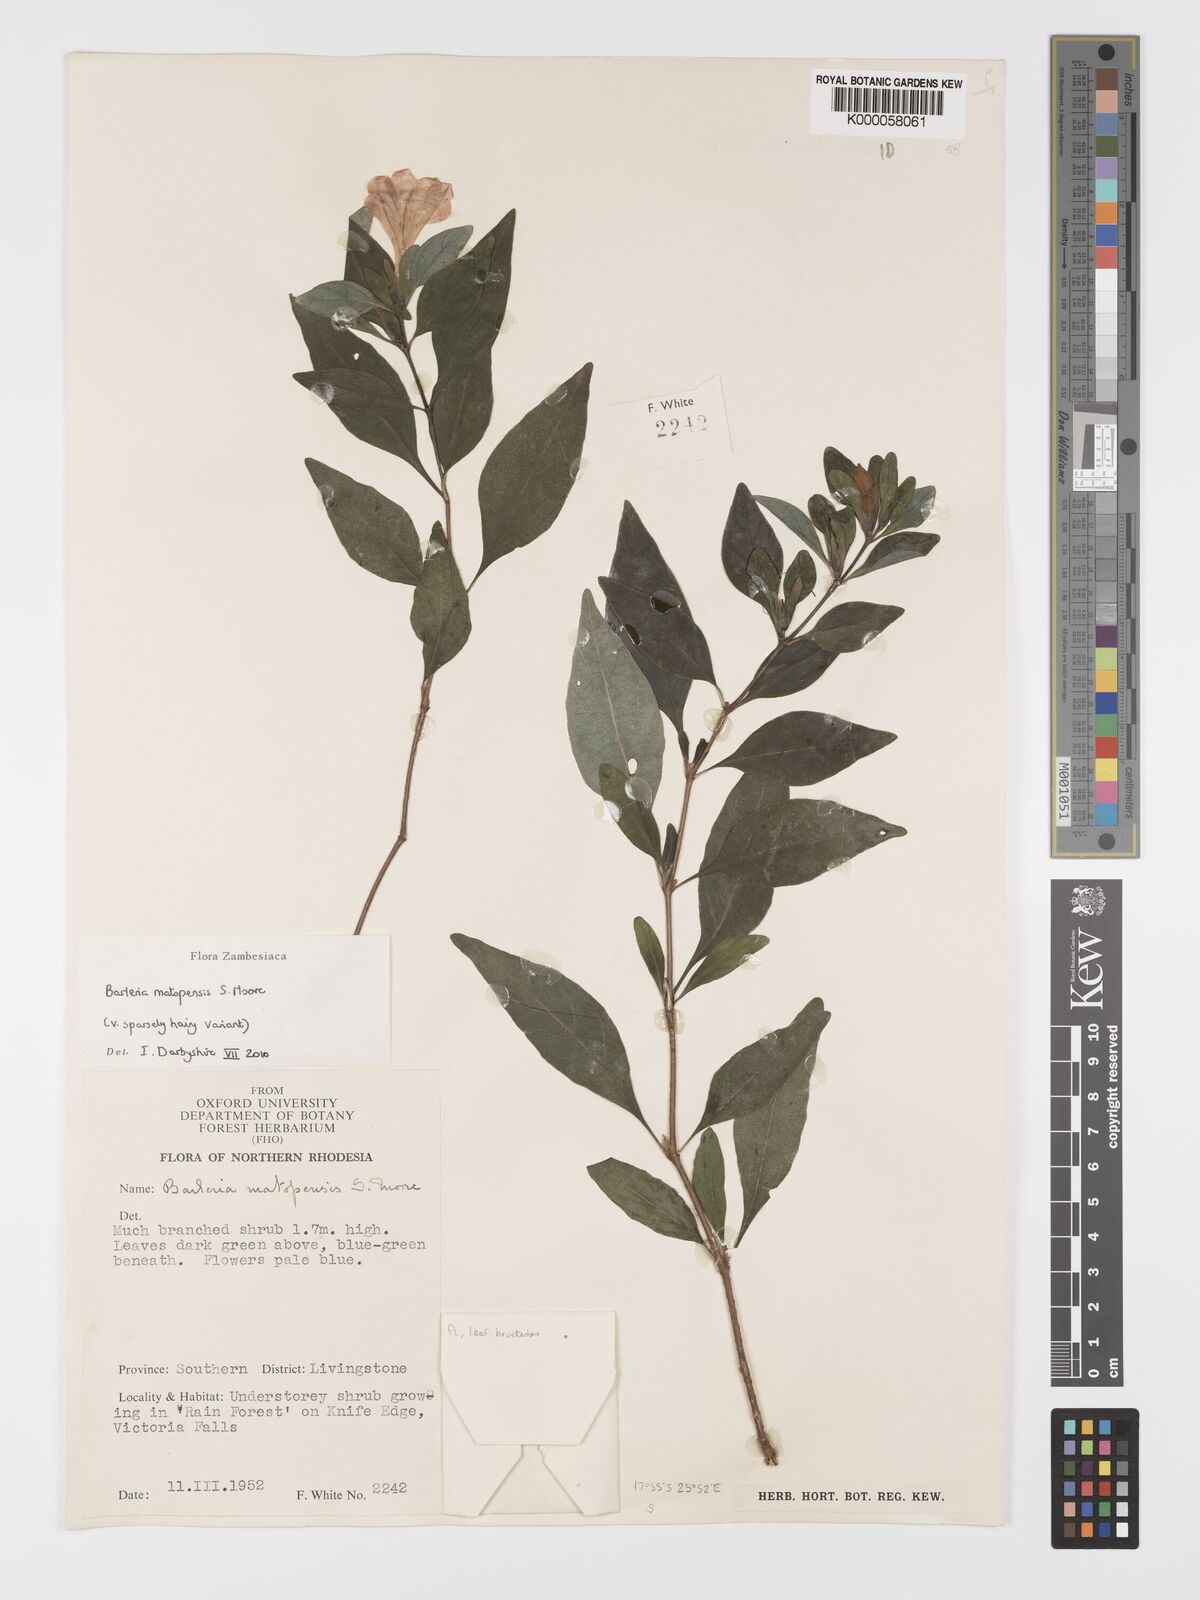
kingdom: Plantae
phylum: Tracheophyta
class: Magnoliopsida
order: Lamiales
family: Acanthaceae
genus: Barleria
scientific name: Barleria matopensis
